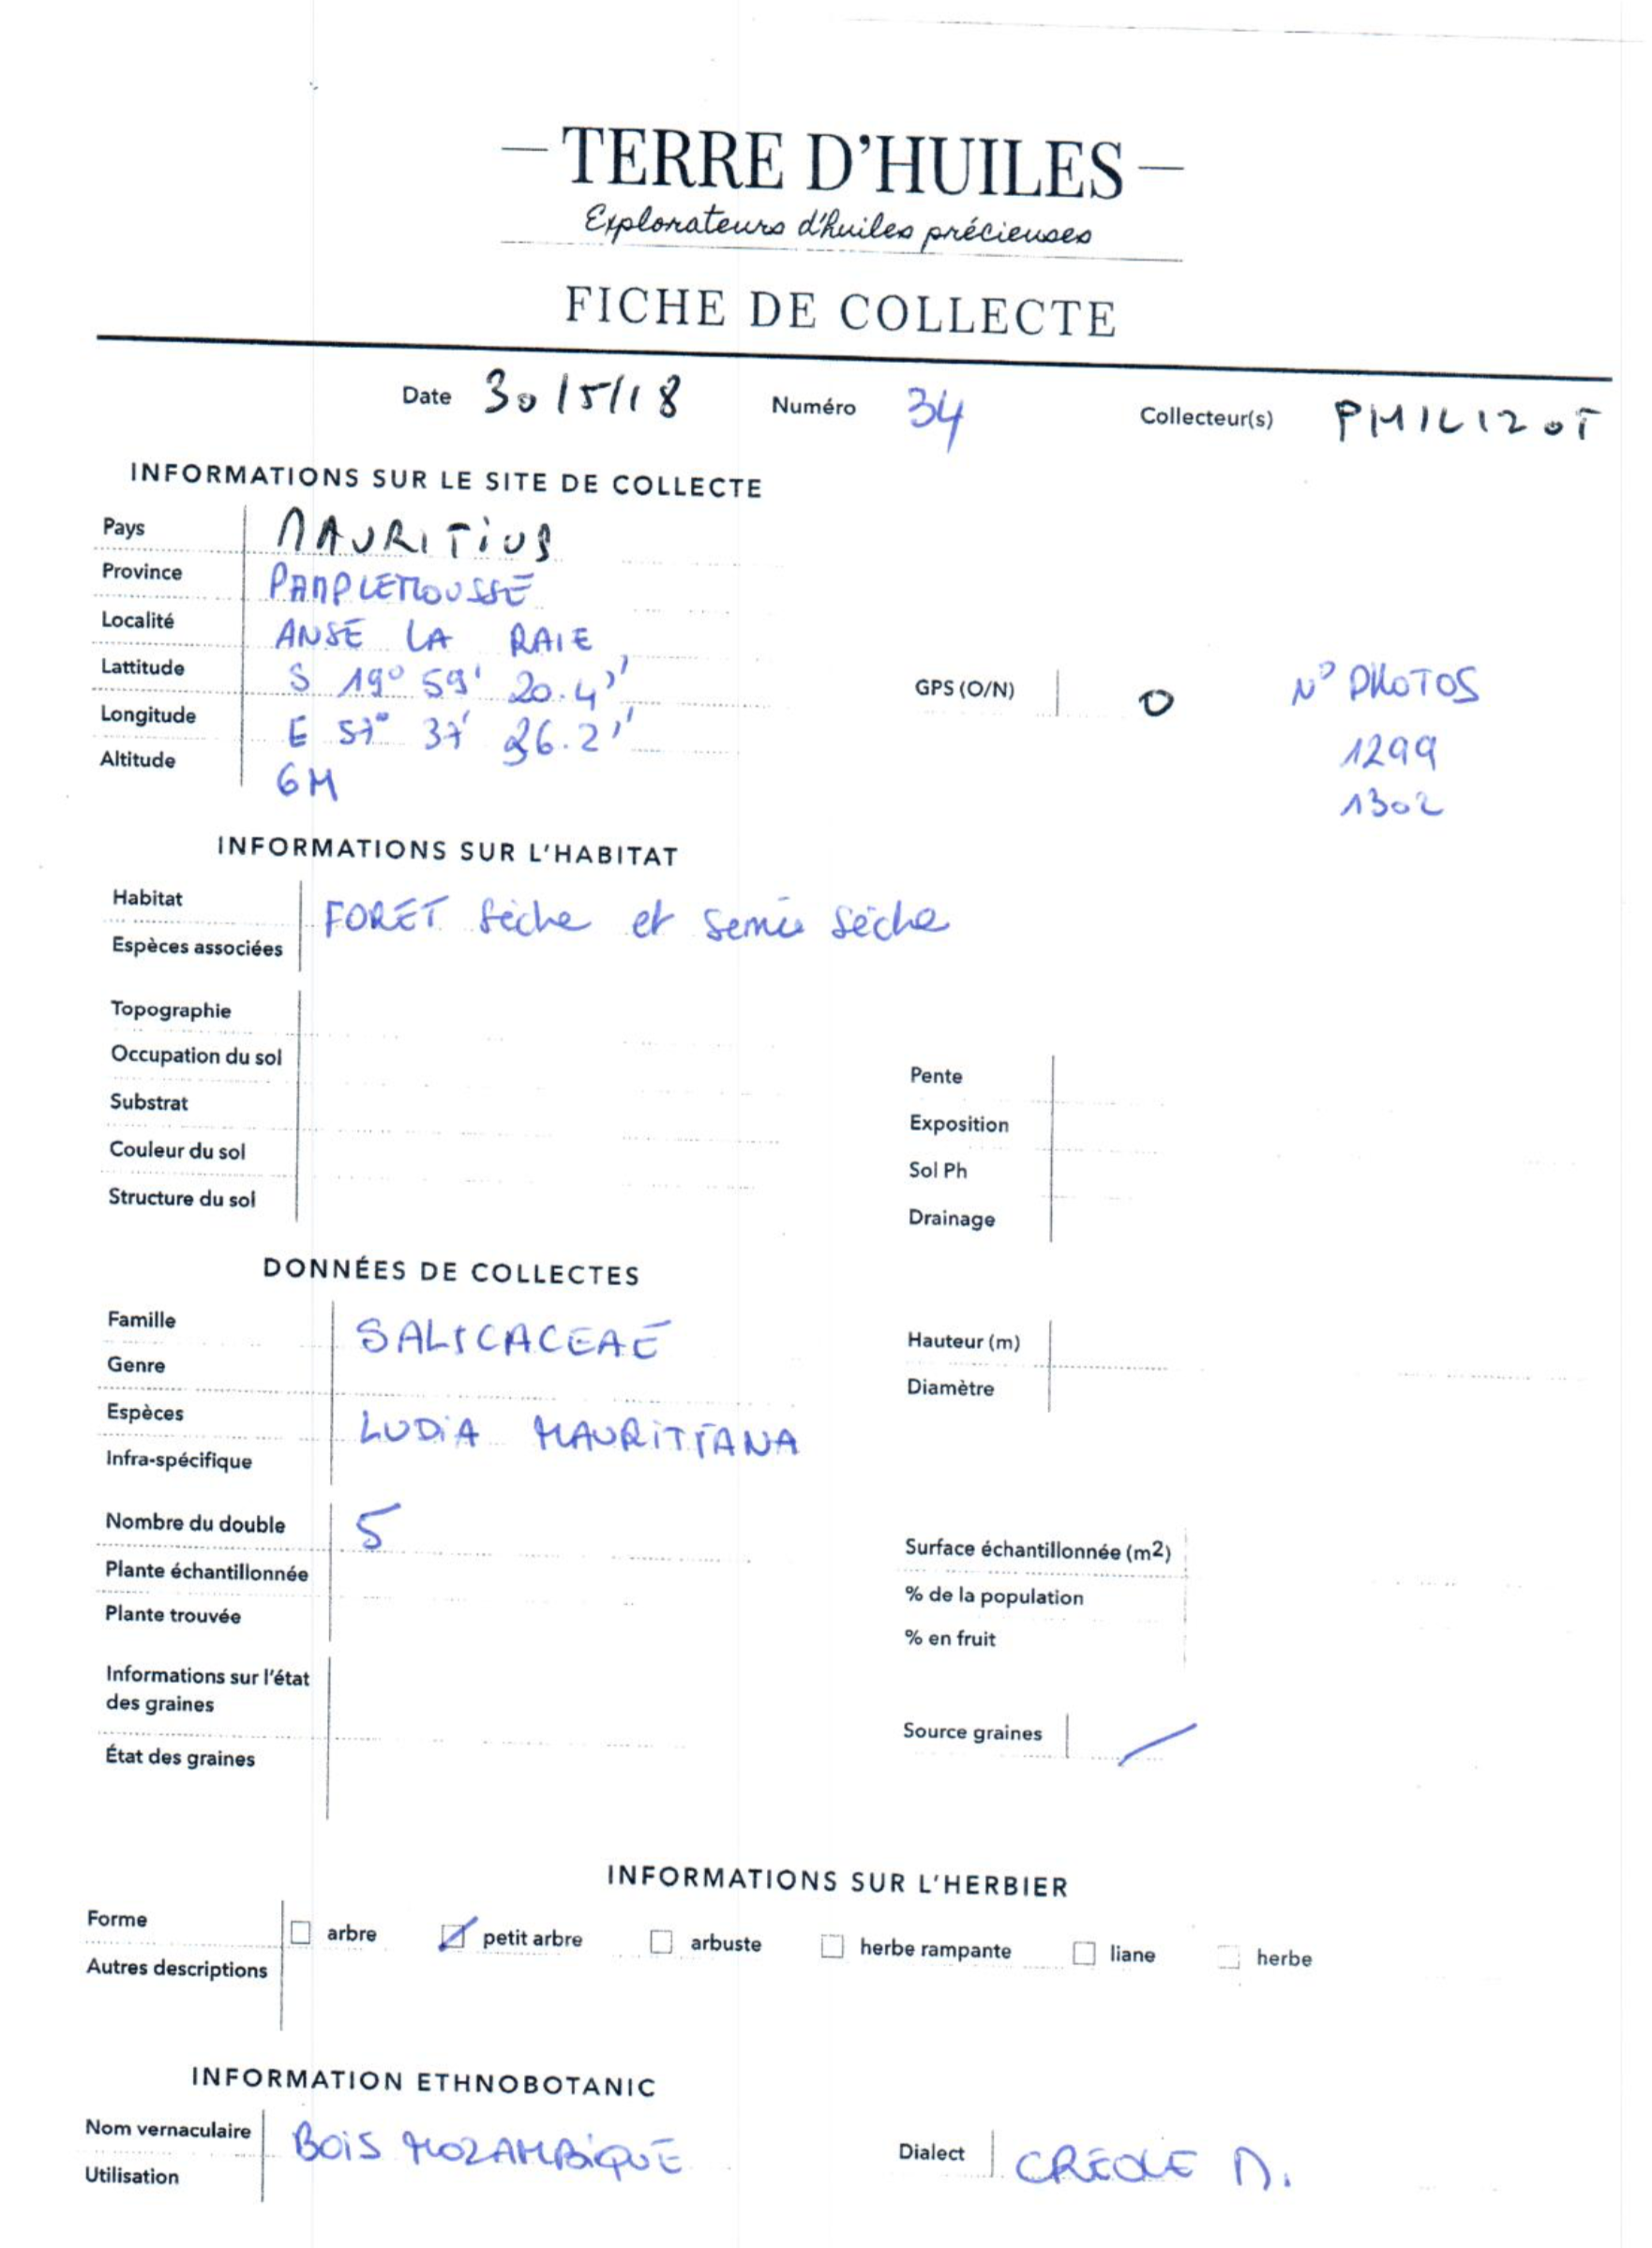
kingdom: Plantae
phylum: Tracheophyta
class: Magnoliopsida
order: Malpighiales
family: Salicaceae
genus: Scolopia
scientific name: Scolopia heterophylla
